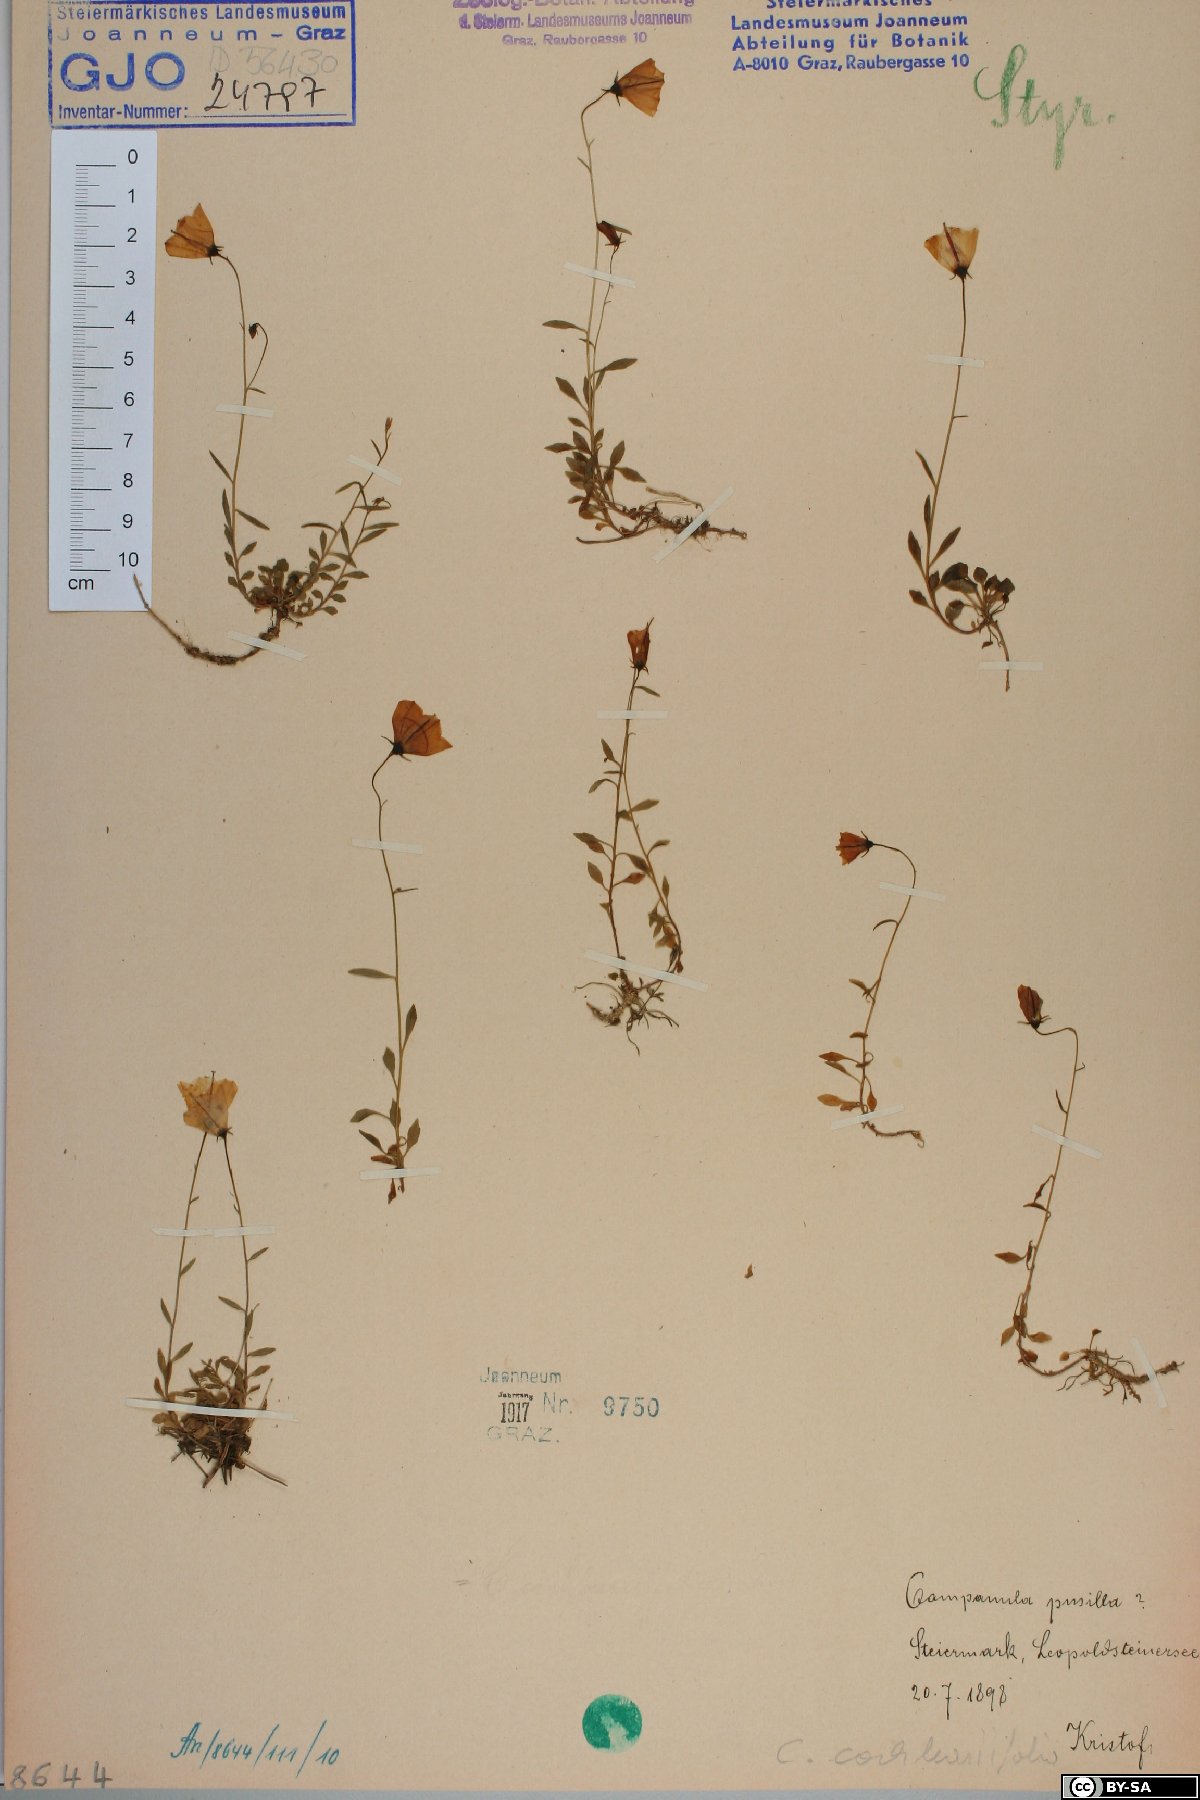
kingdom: Plantae
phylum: Tracheophyta
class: Magnoliopsida
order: Asterales
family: Campanulaceae
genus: Campanula
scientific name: Campanula cochleariifolia
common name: Fairies'-thimbles
